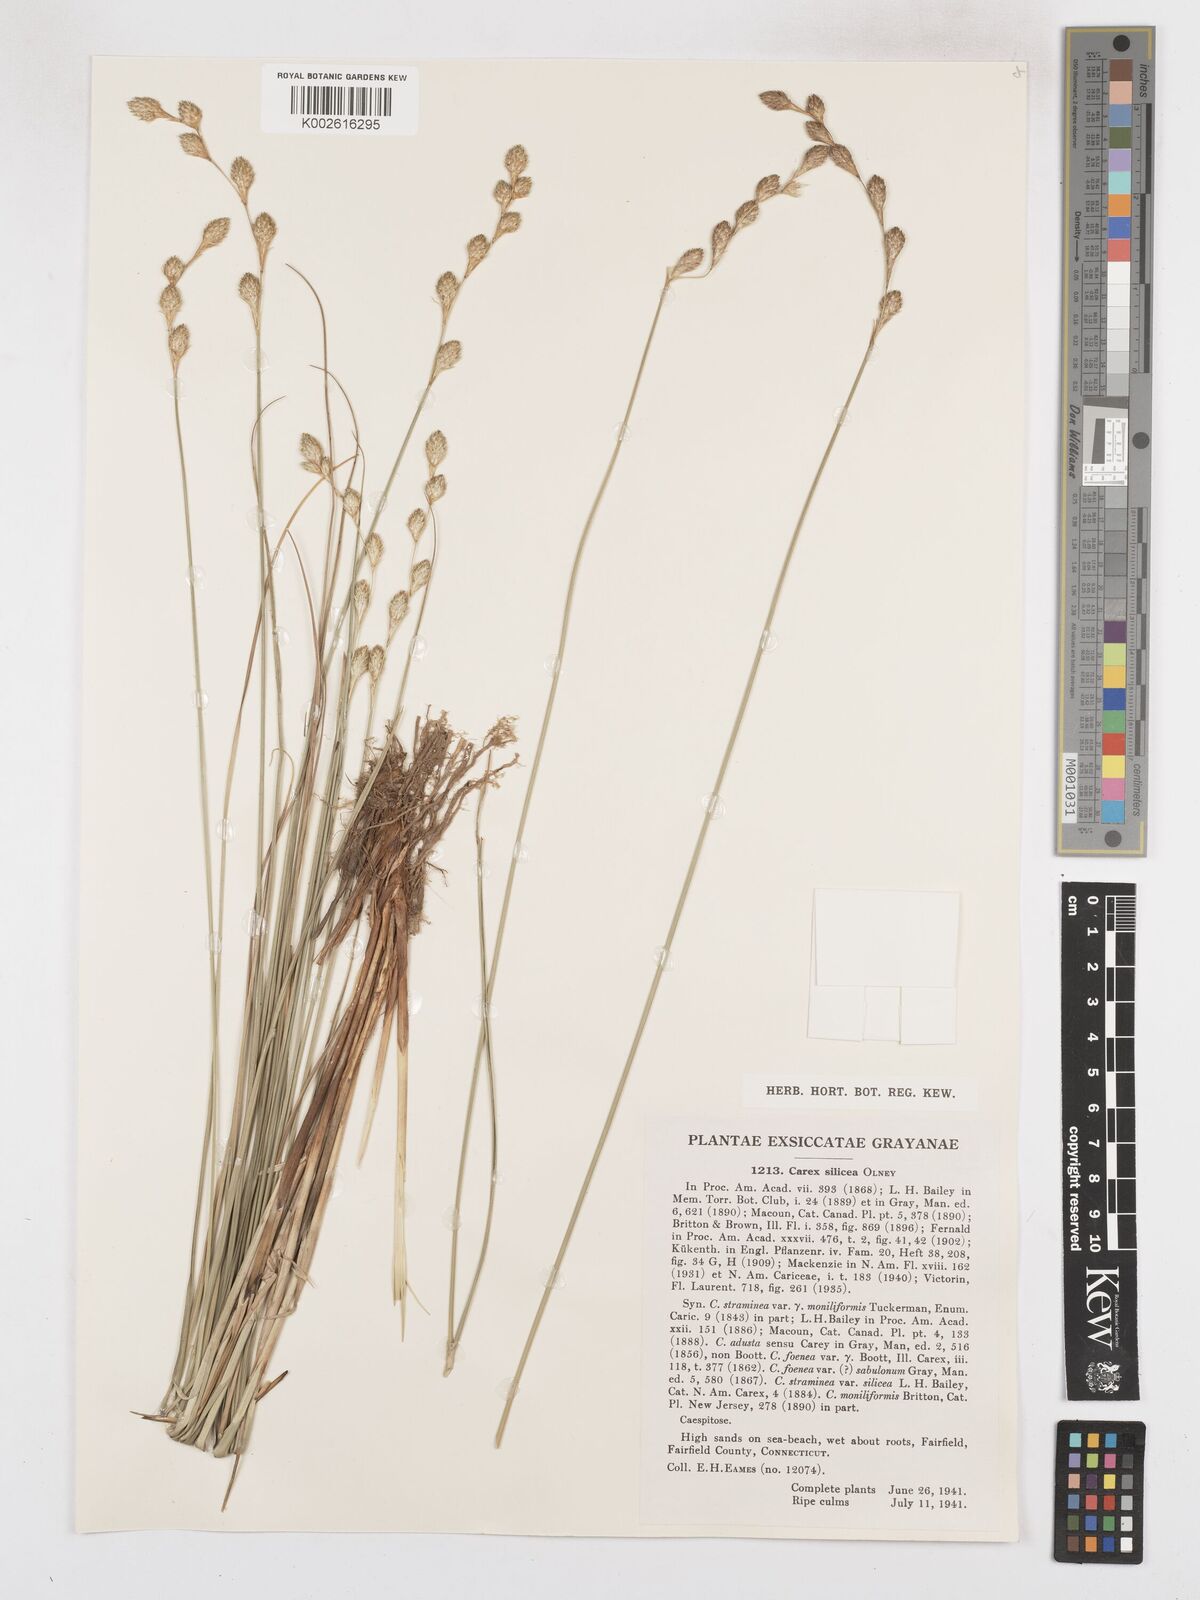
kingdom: Plantae
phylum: Tracheophyta
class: Liliopsida
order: Poales
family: Cyperaceae
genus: Carex
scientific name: Carex silicea
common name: Beach sedge
